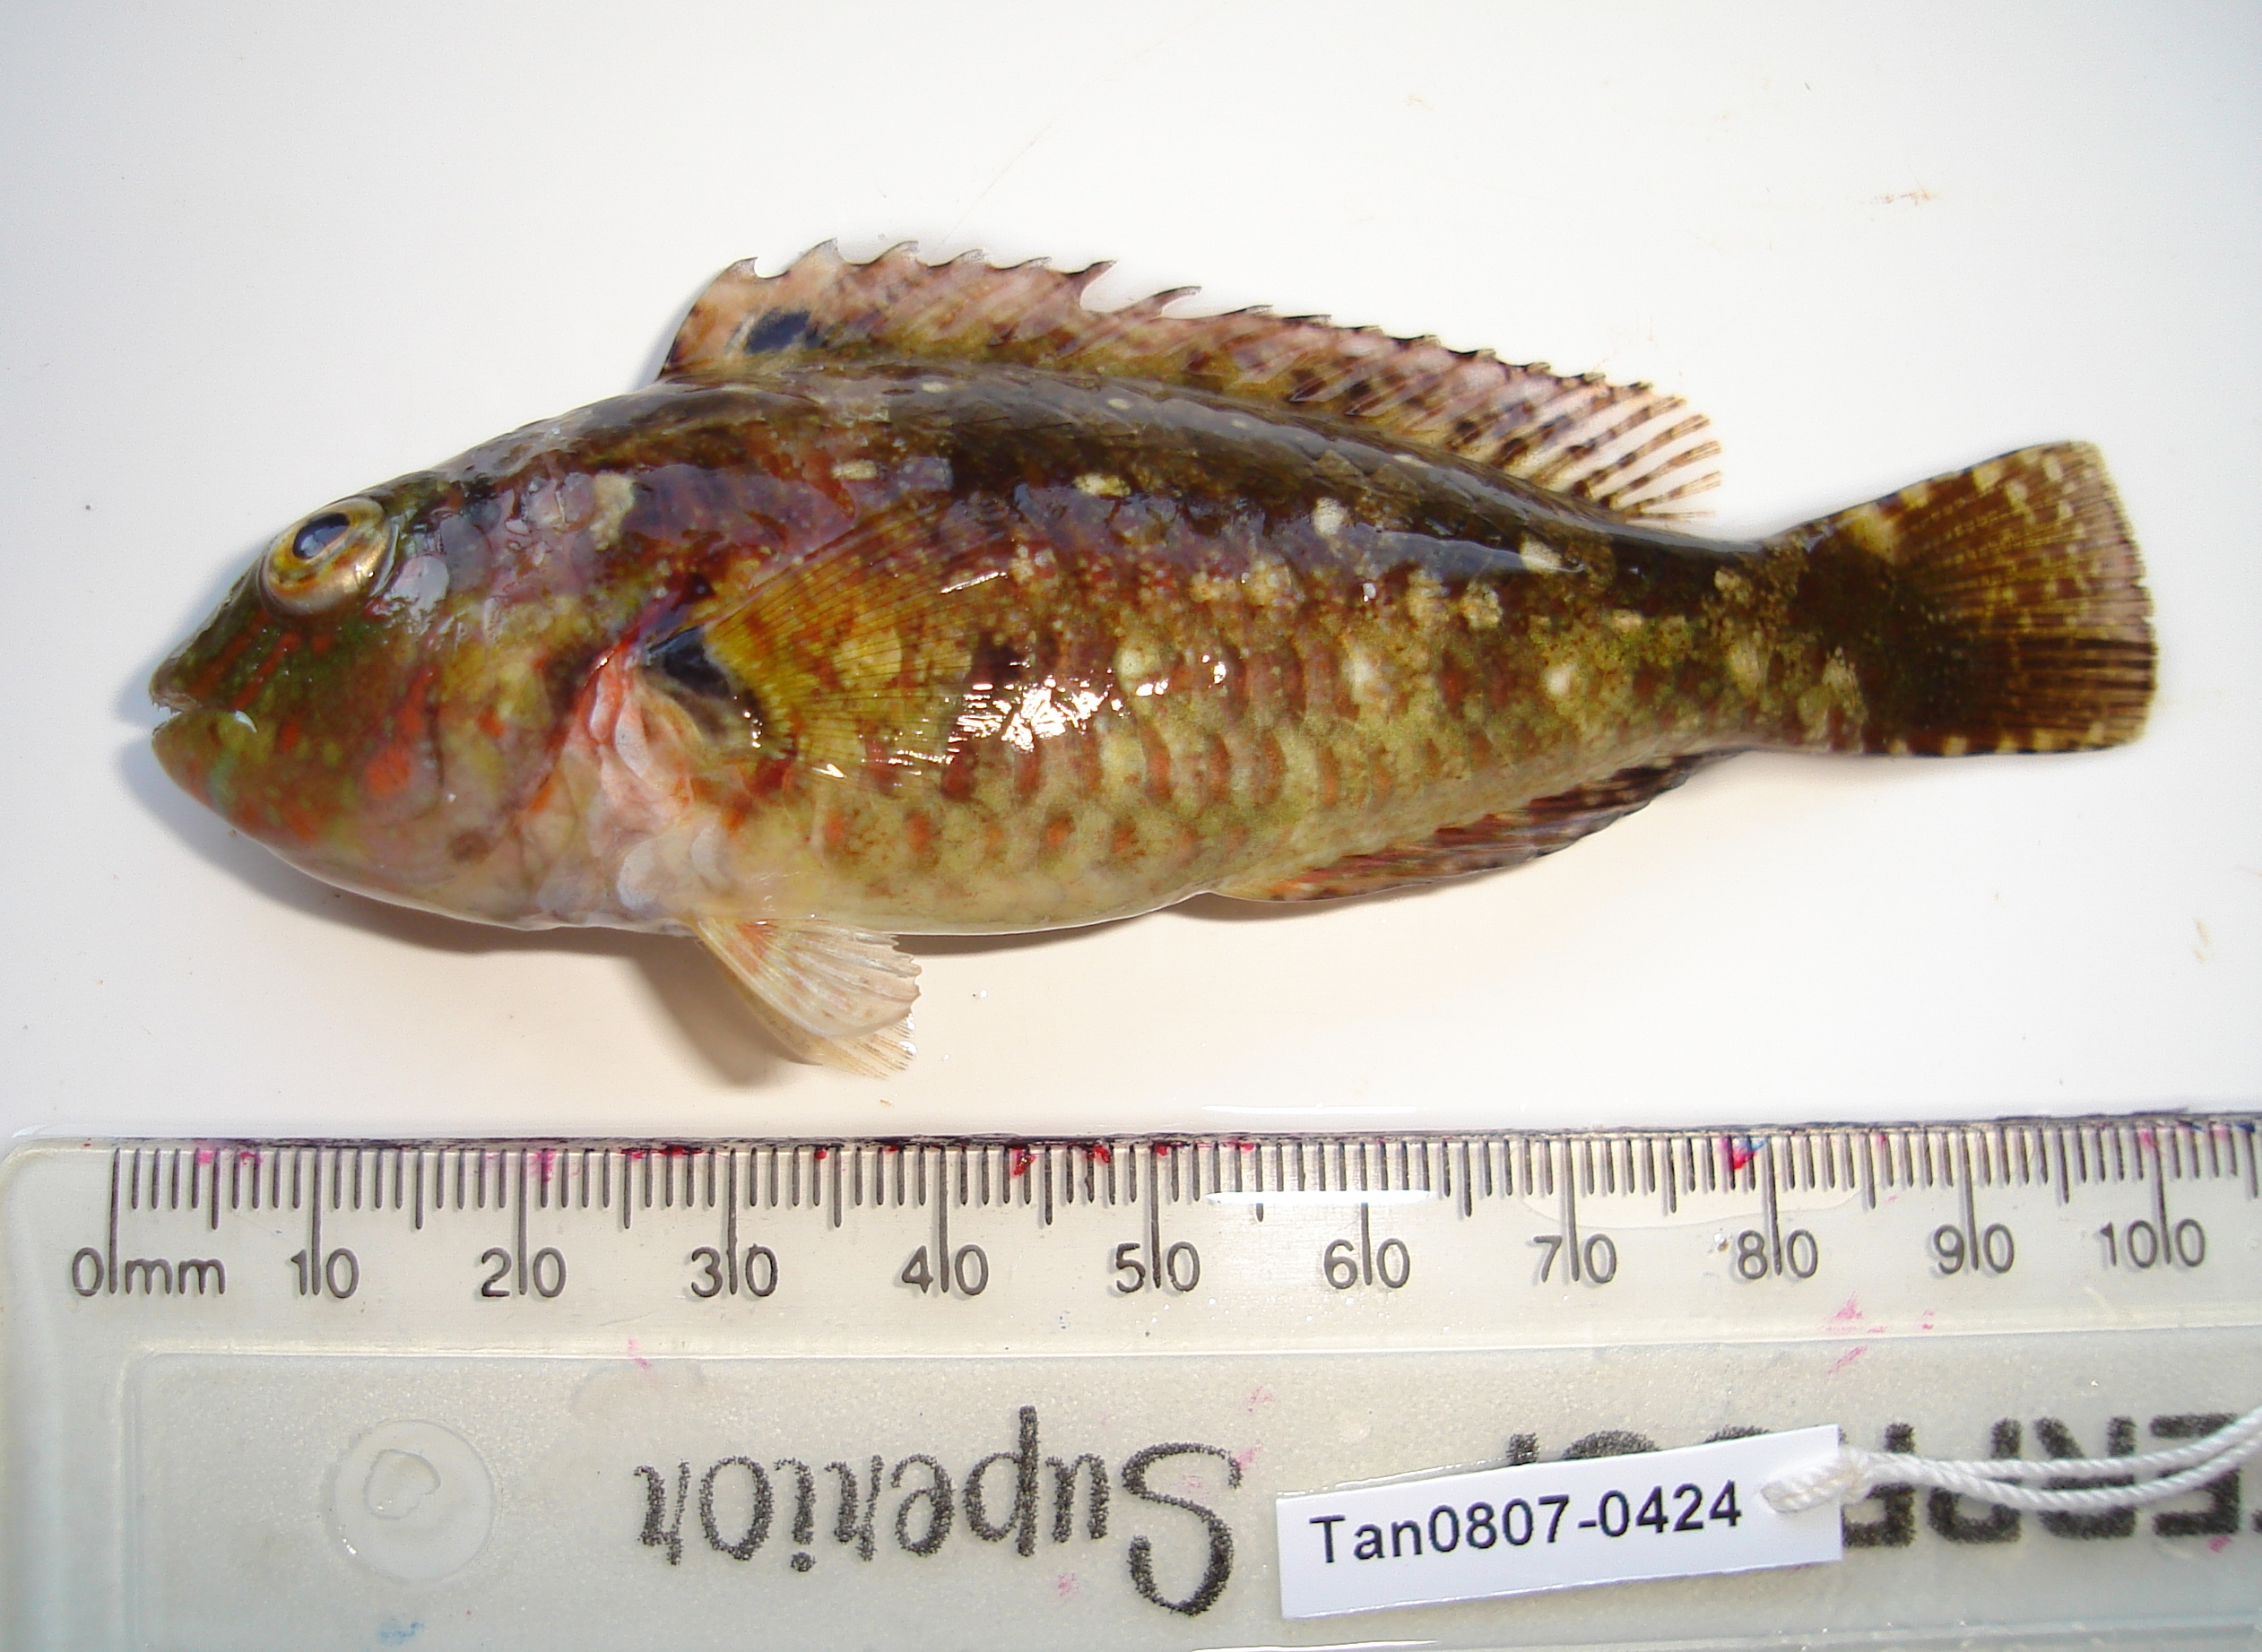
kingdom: Animalia
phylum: Chordata
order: Perciformes
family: Scaridae
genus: Calotomus
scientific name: Calotomus spinidens
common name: Raggedtooth parrotfish
